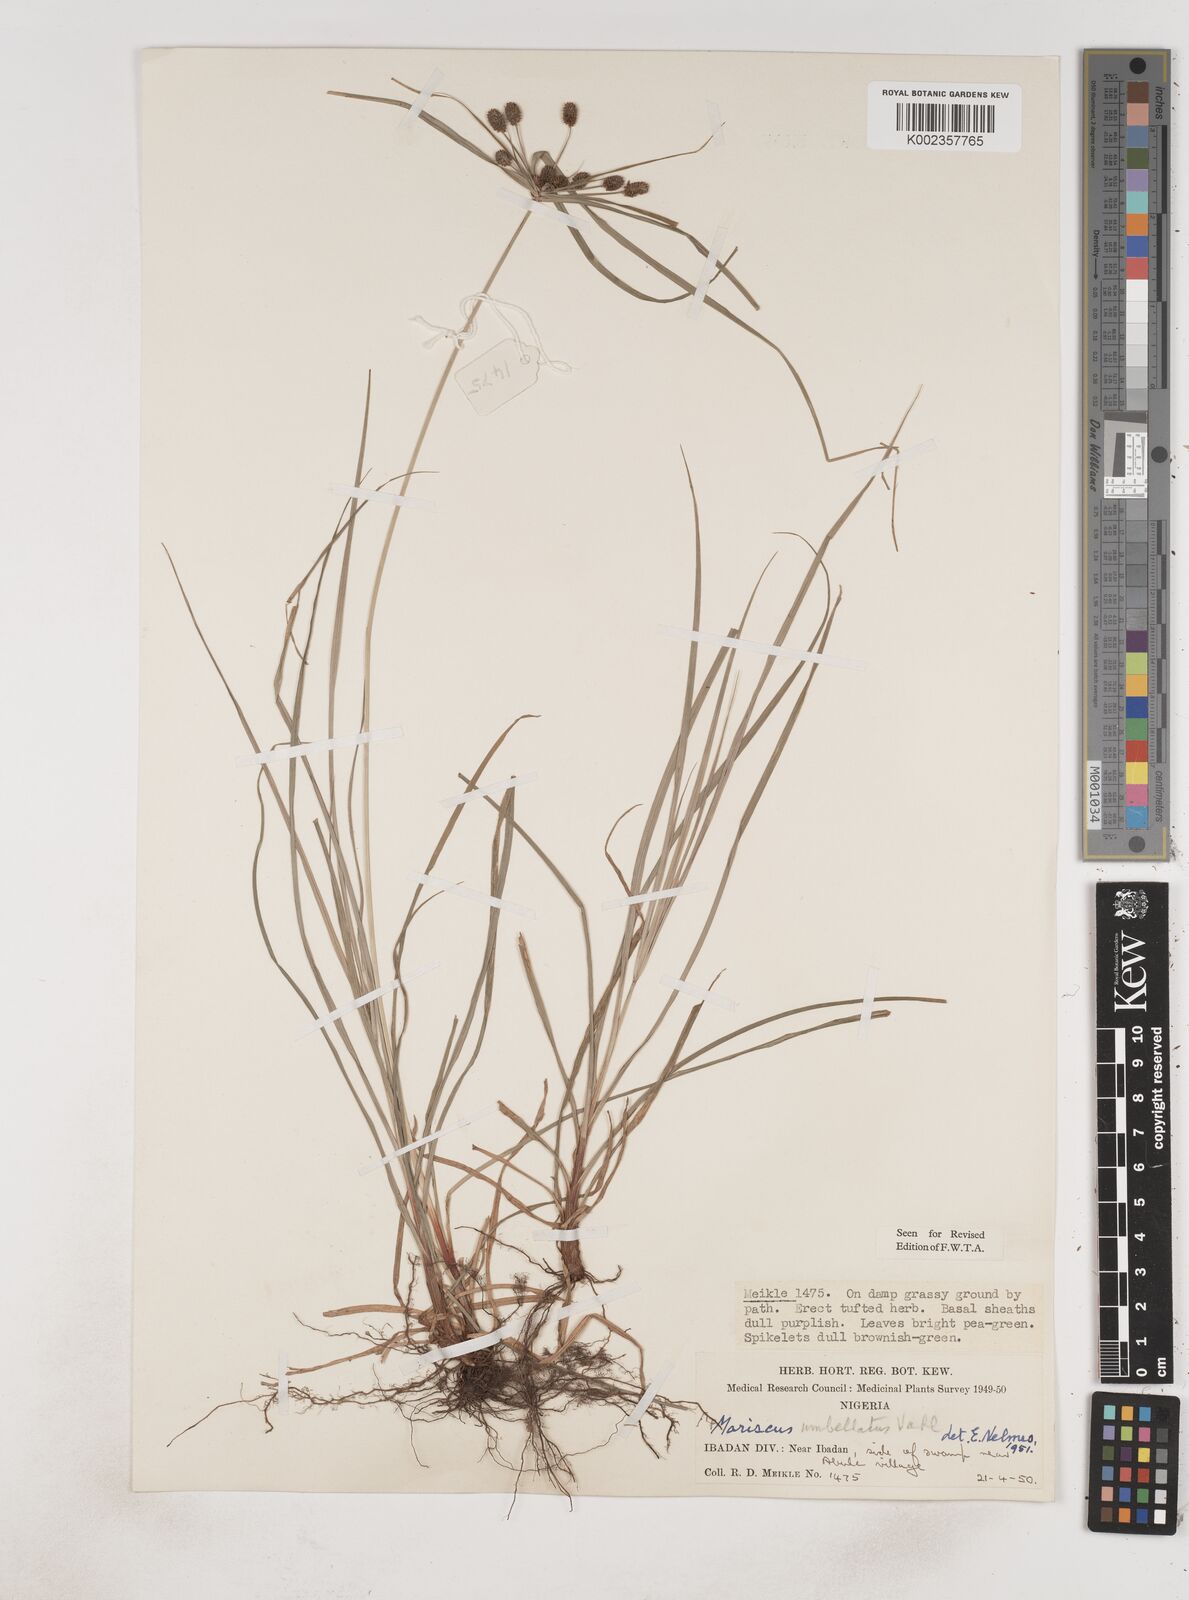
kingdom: Plantae
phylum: Tracheophyta
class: Liliopsida
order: Poales
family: Cyperaceae
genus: Cyperus
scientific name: Cyperus sublimis
